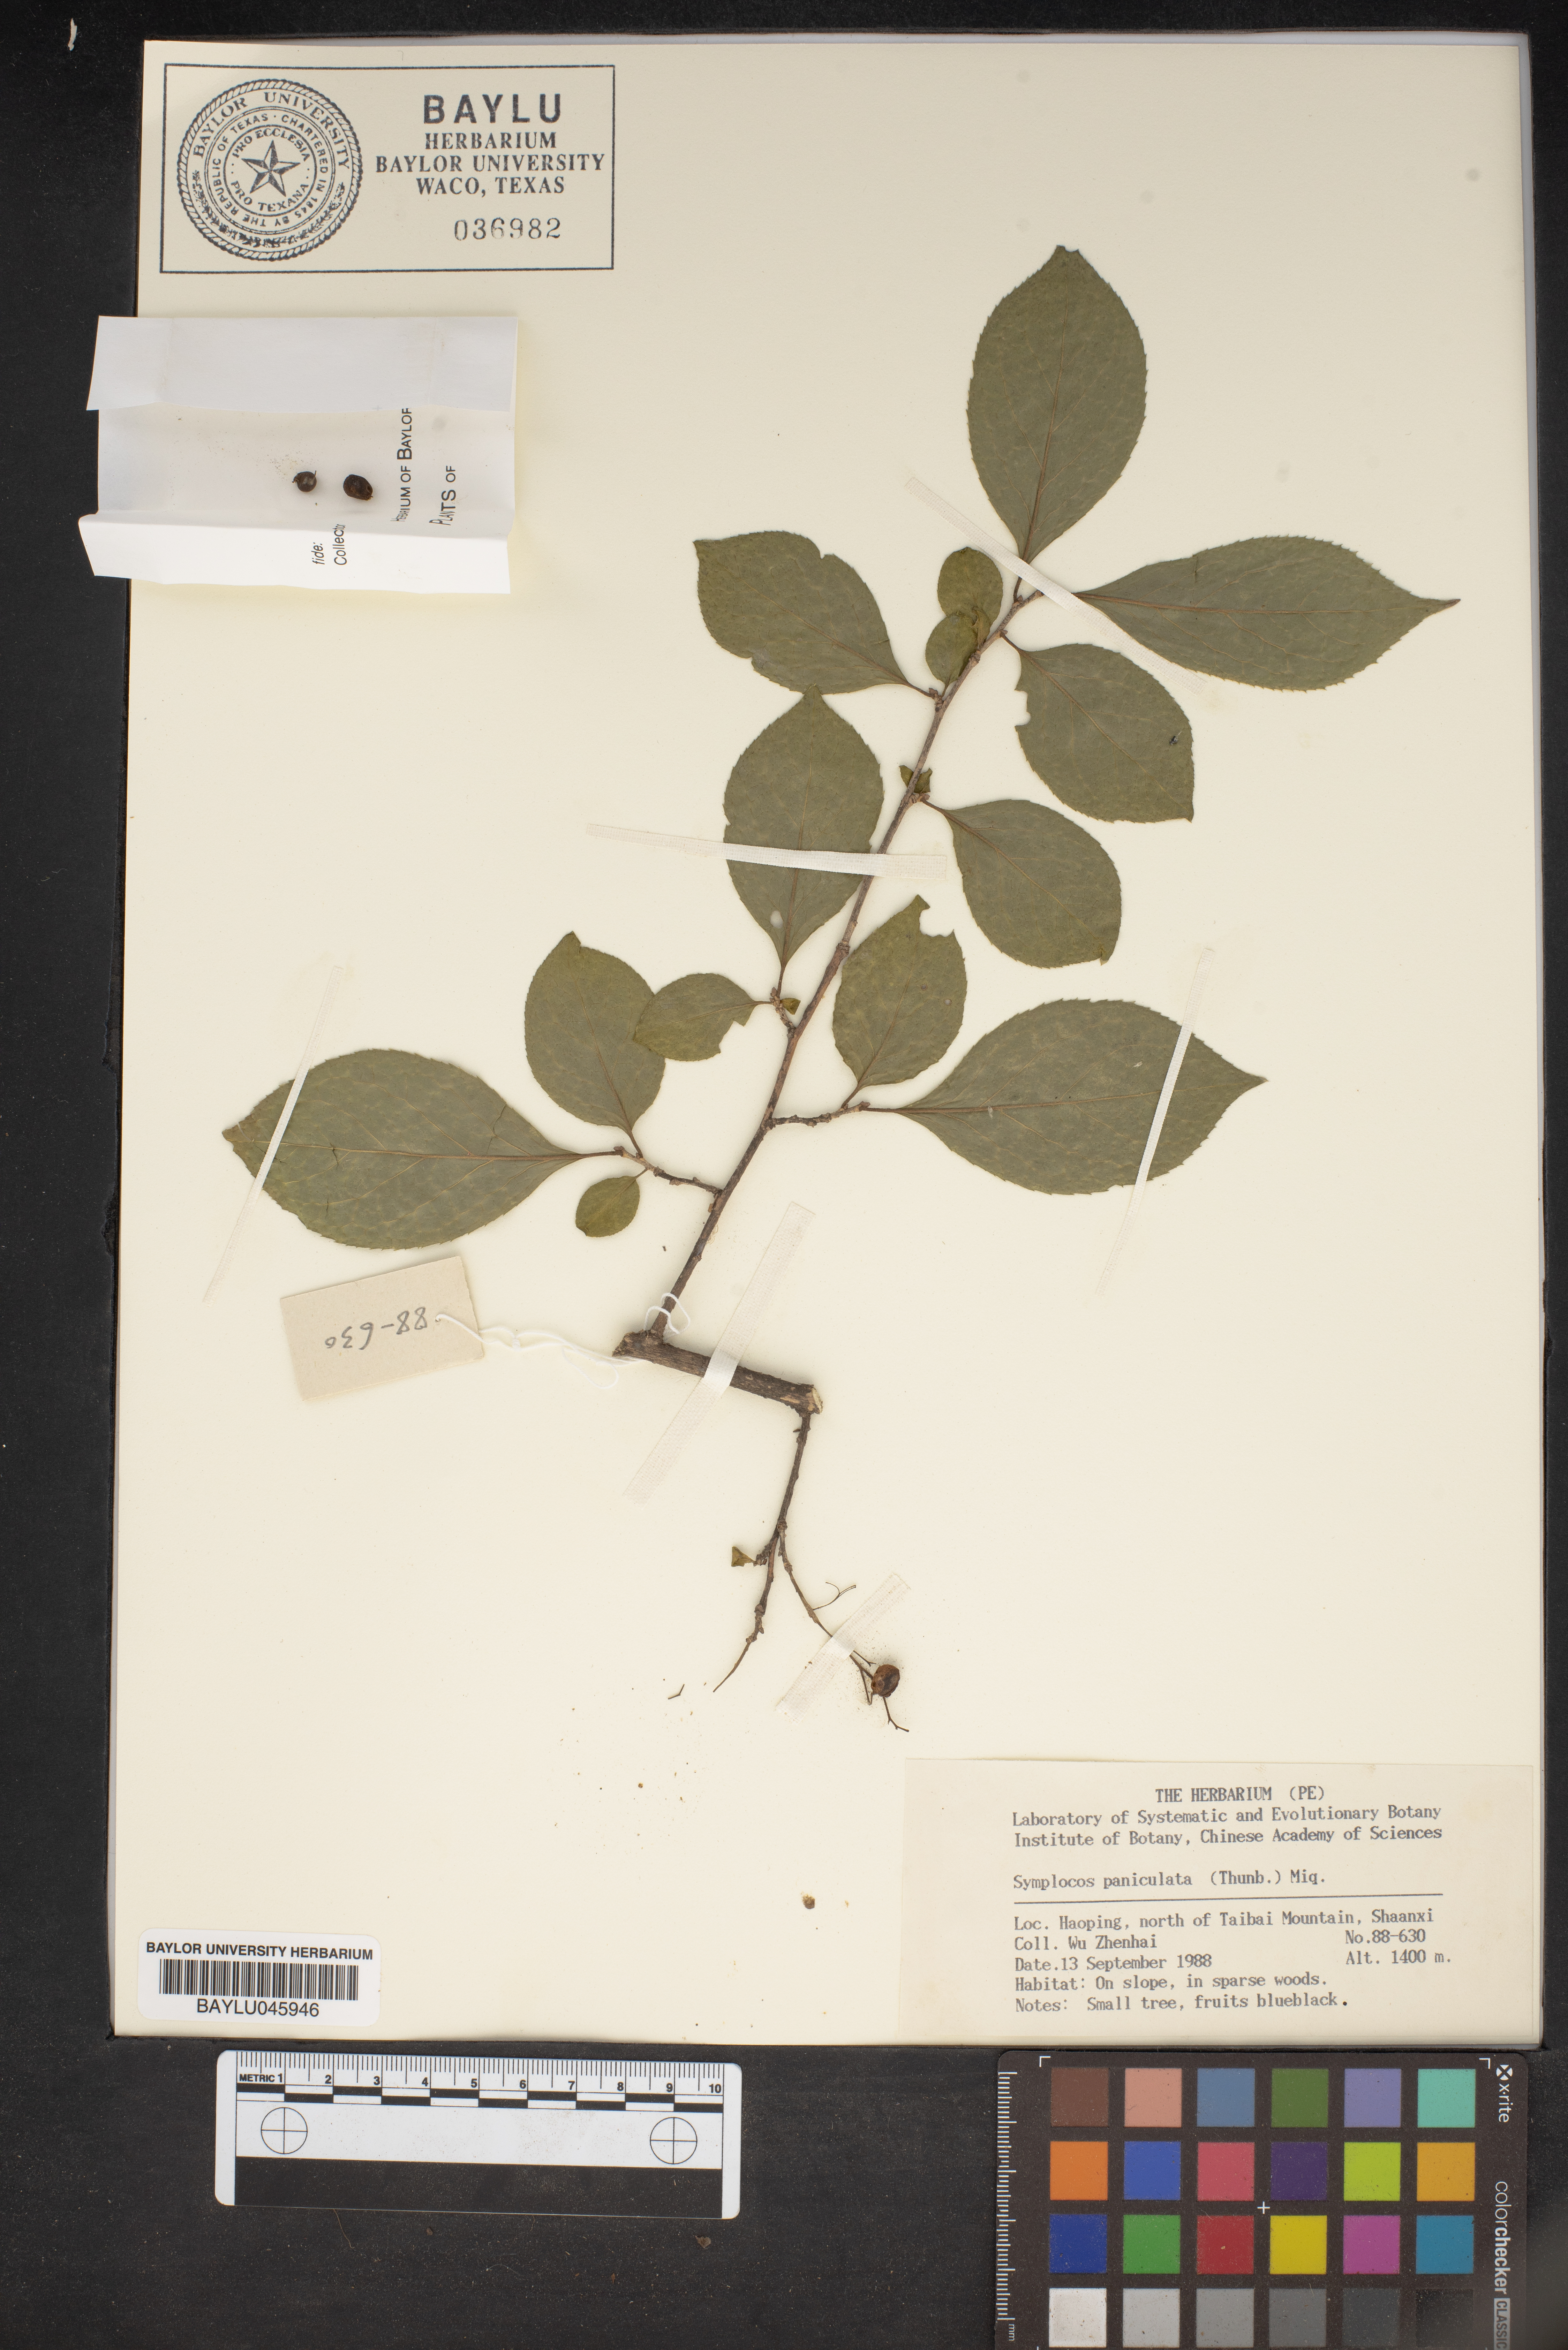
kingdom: Plantae
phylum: Tracheophyta
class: Magnoliopsida
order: Ericales
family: Symplocaceae
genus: Symplocos
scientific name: Symplocos paniculata
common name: Sapphire-berry
